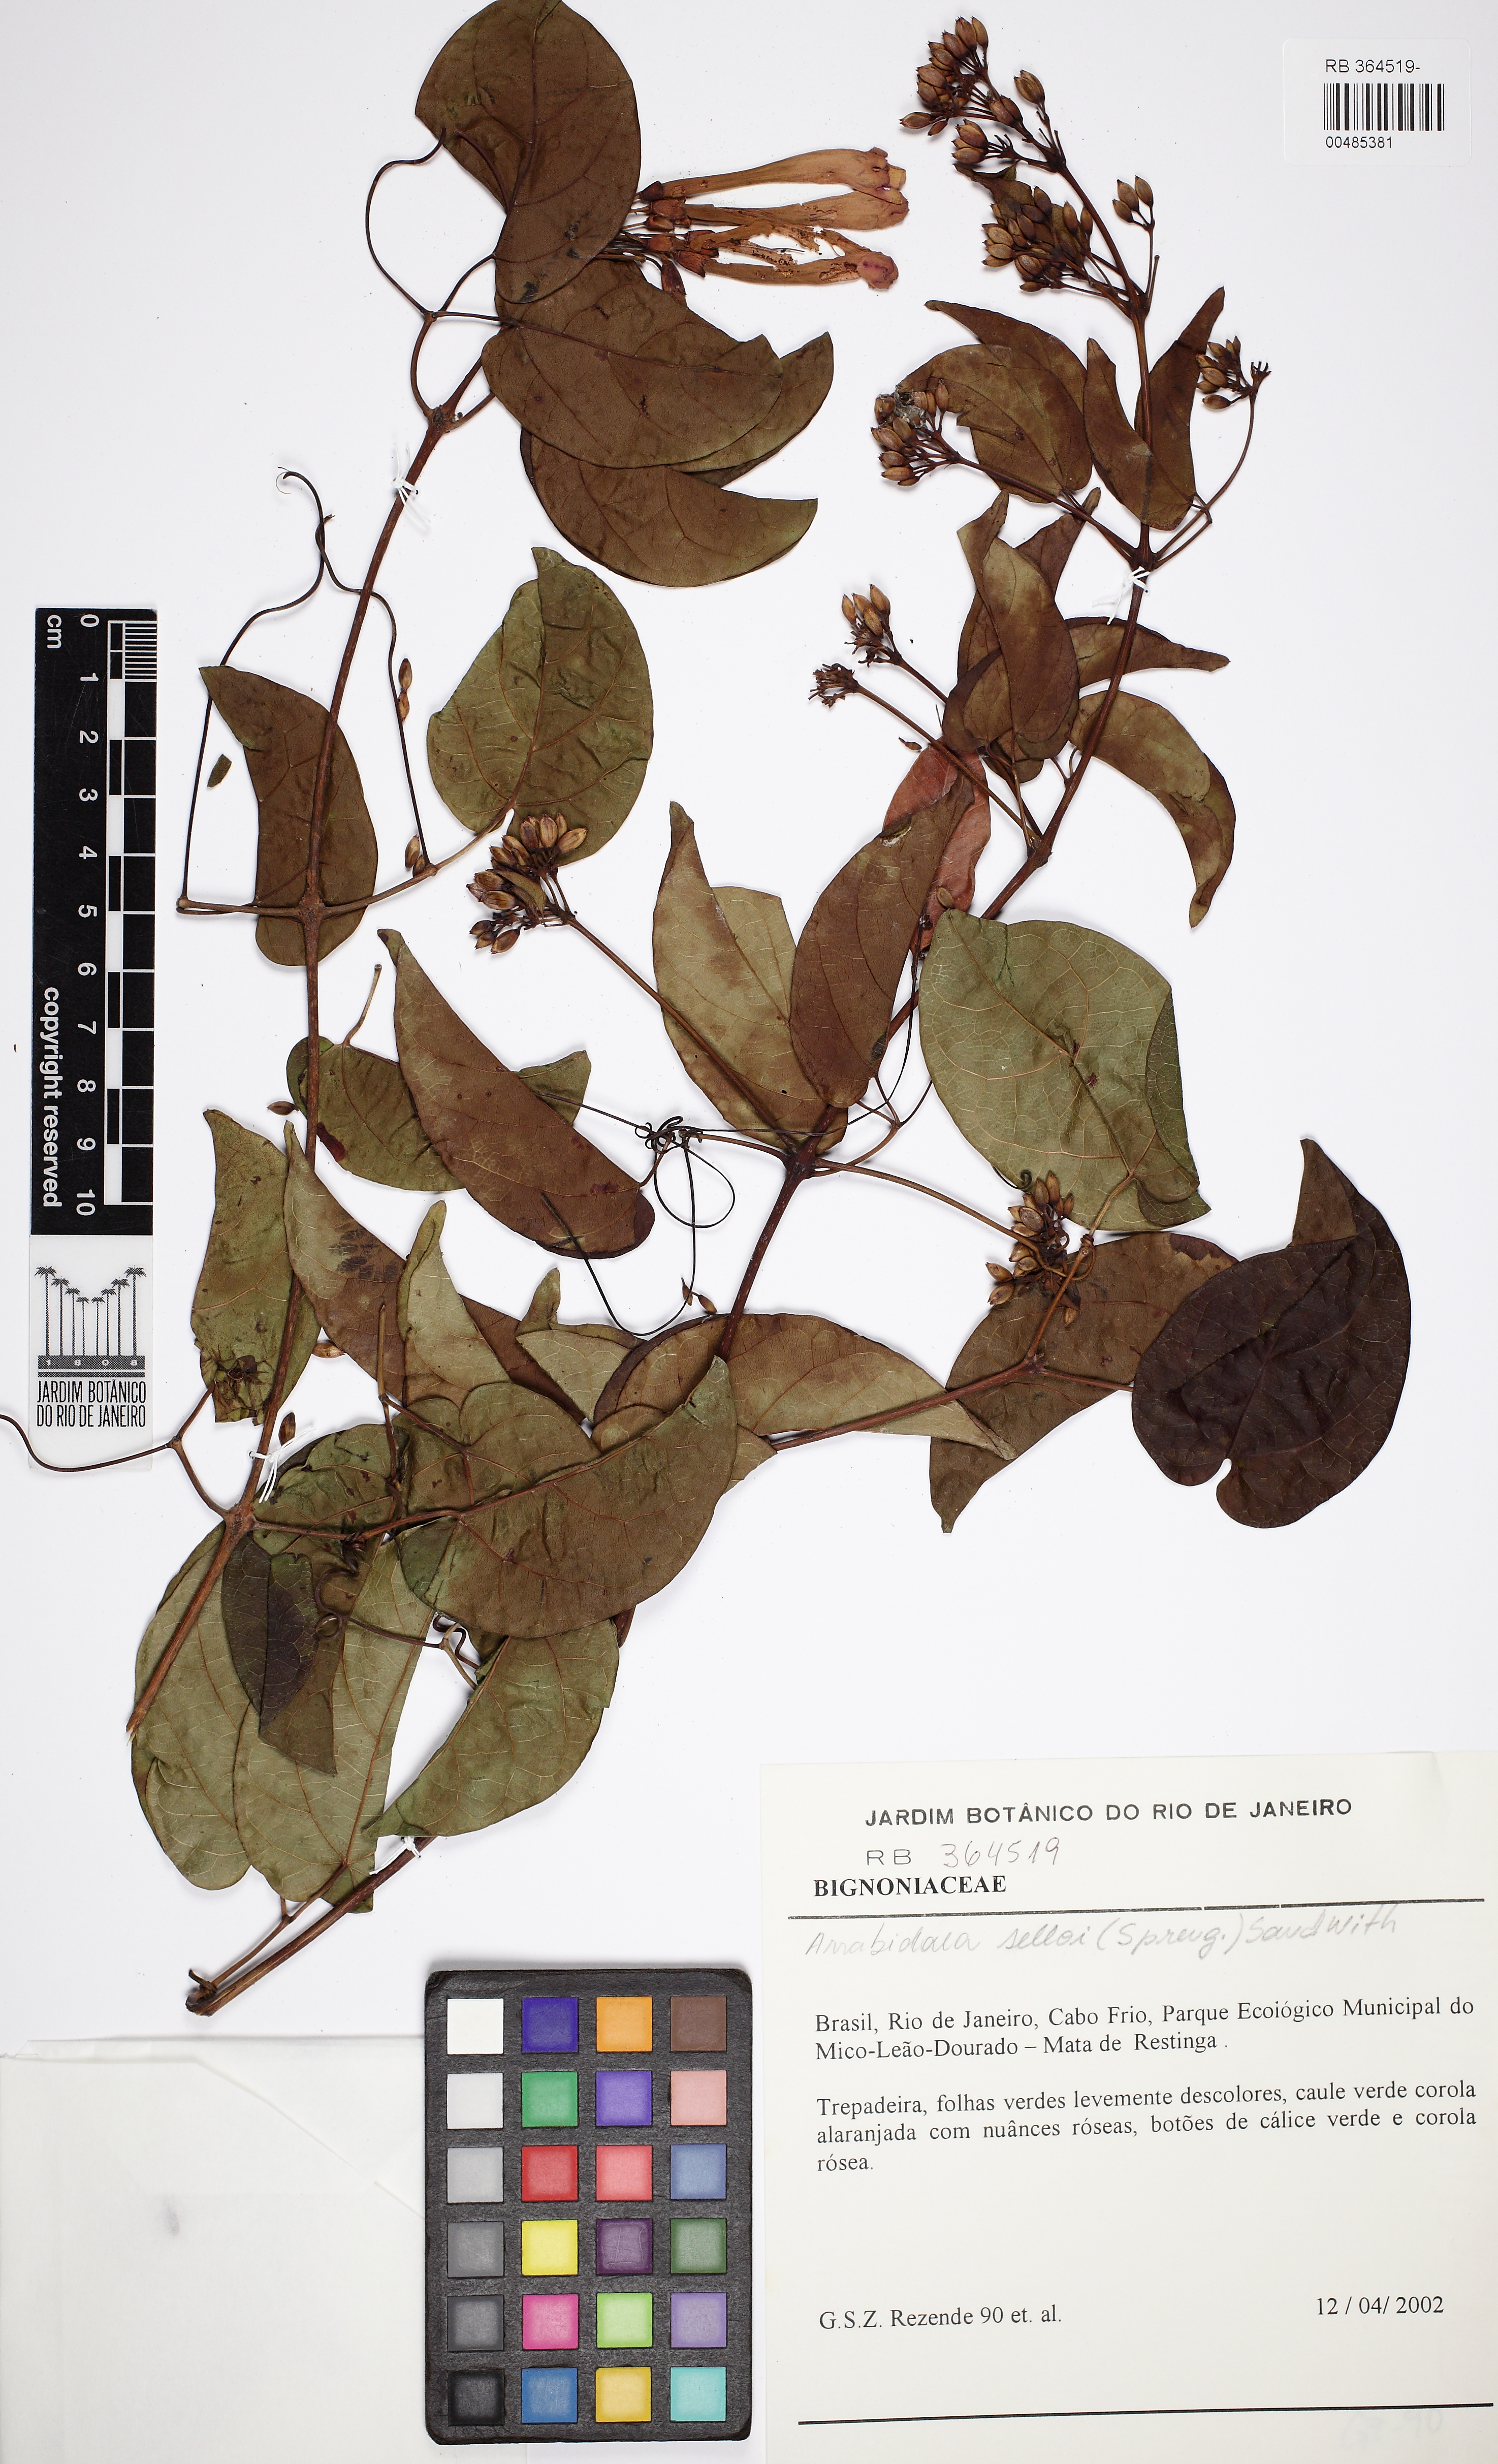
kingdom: Plantae
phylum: Tracheophyta
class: Magnoliopsida
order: Lamiales
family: Bignoniaceae
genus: Lundia
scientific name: Lundia longa
